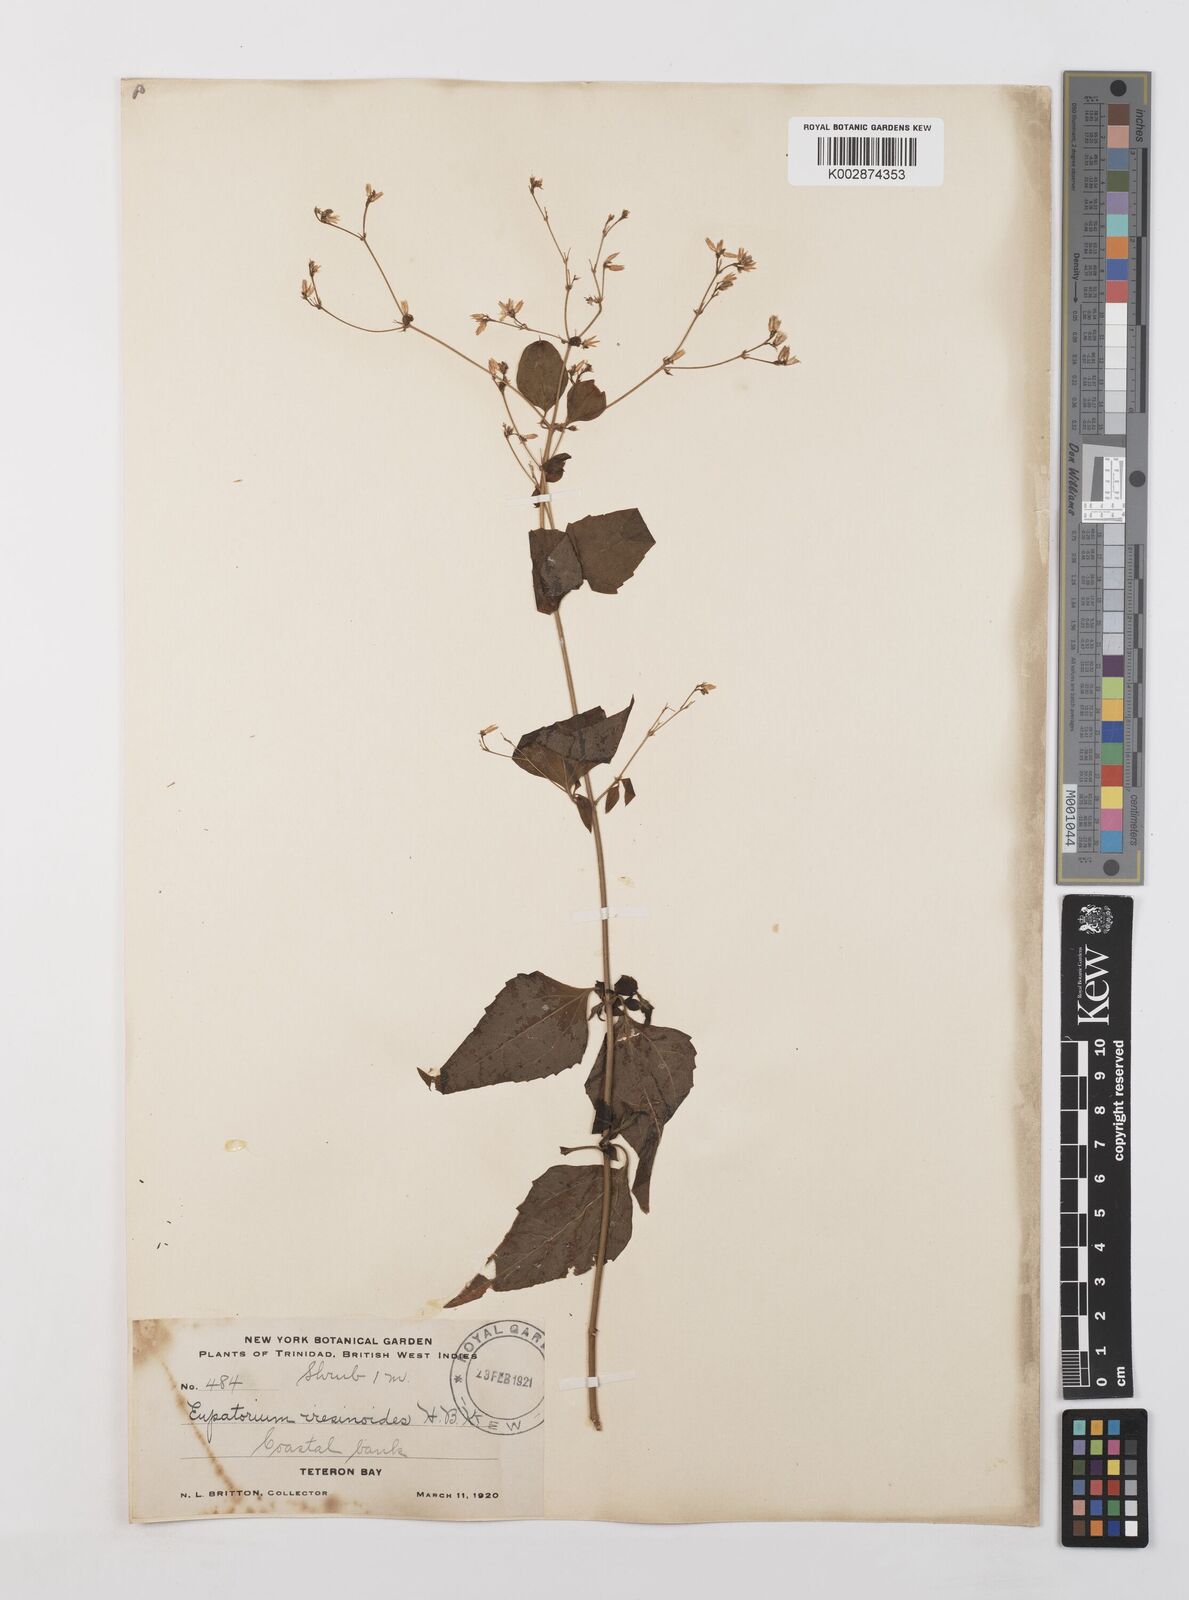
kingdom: Plantae
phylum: Tracheophyta
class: Magnoliopsida
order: Asterales
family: Asteraceae
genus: Condylidium
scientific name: Condylidium iresinoides
